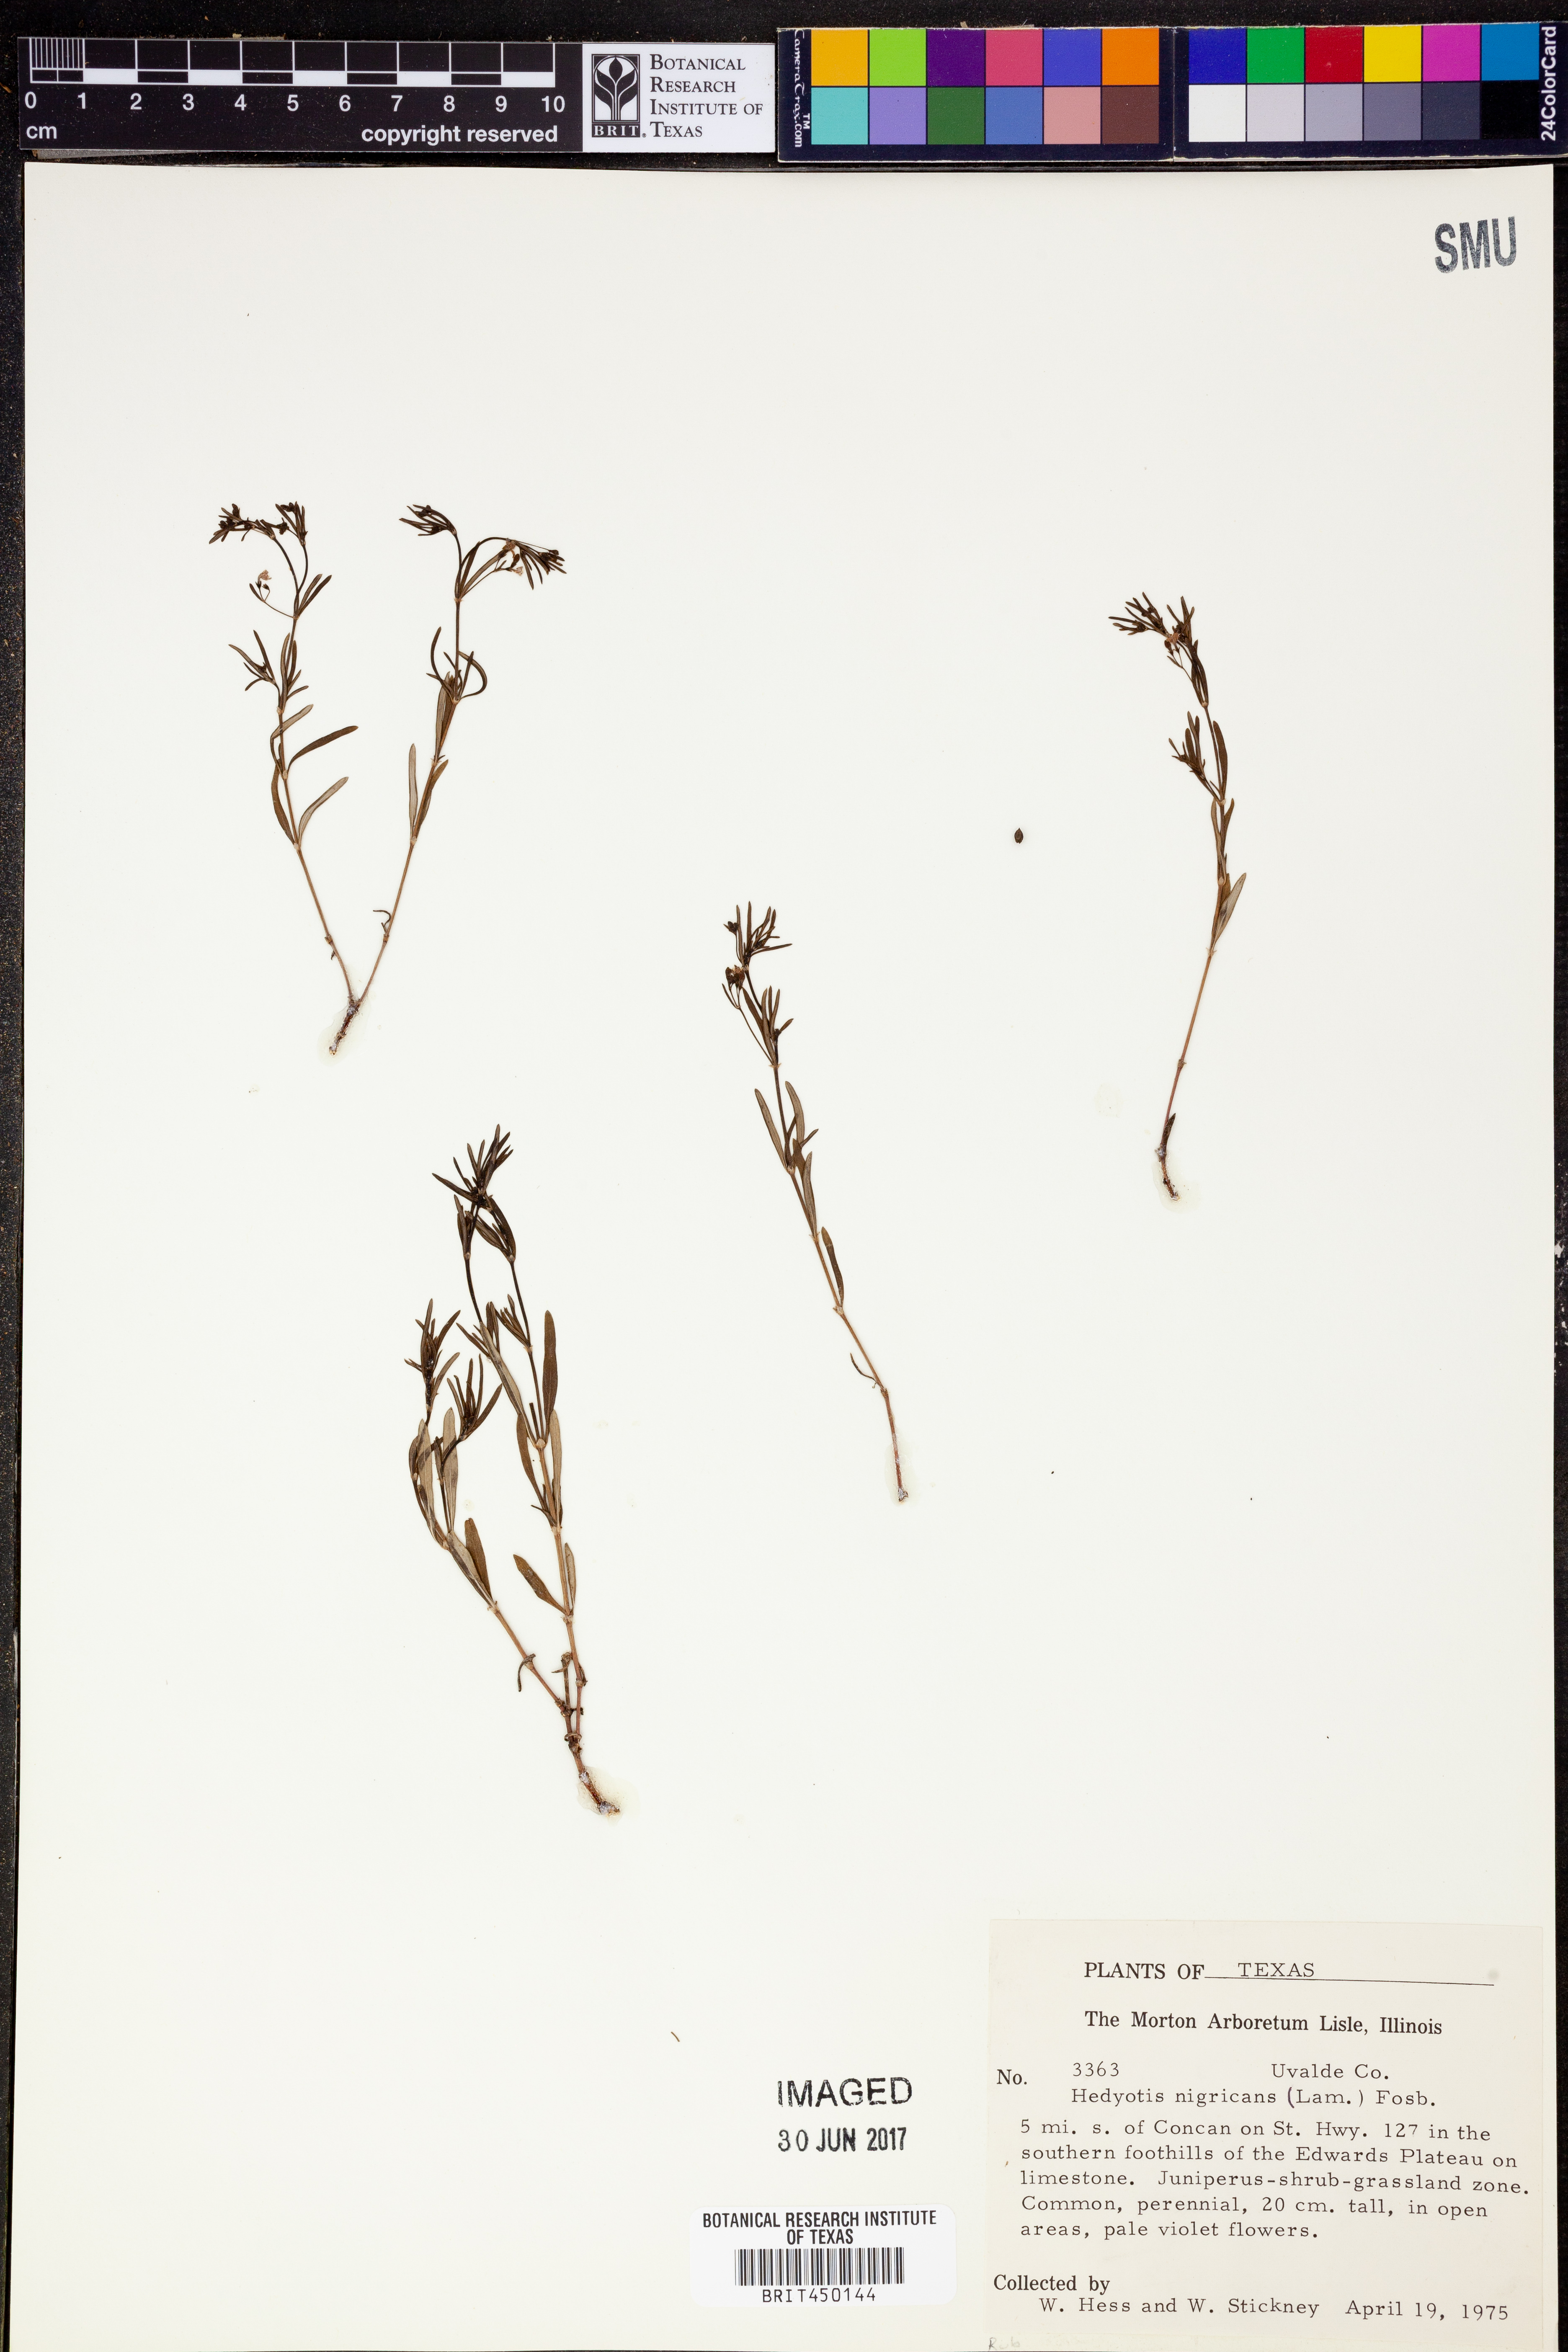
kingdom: Plantae
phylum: Tracheophyta
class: Magnoliopsida
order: Gentianales
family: Rubiaceae
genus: Stenaria
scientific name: Stenaria nigricans
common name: Diamondflowers
